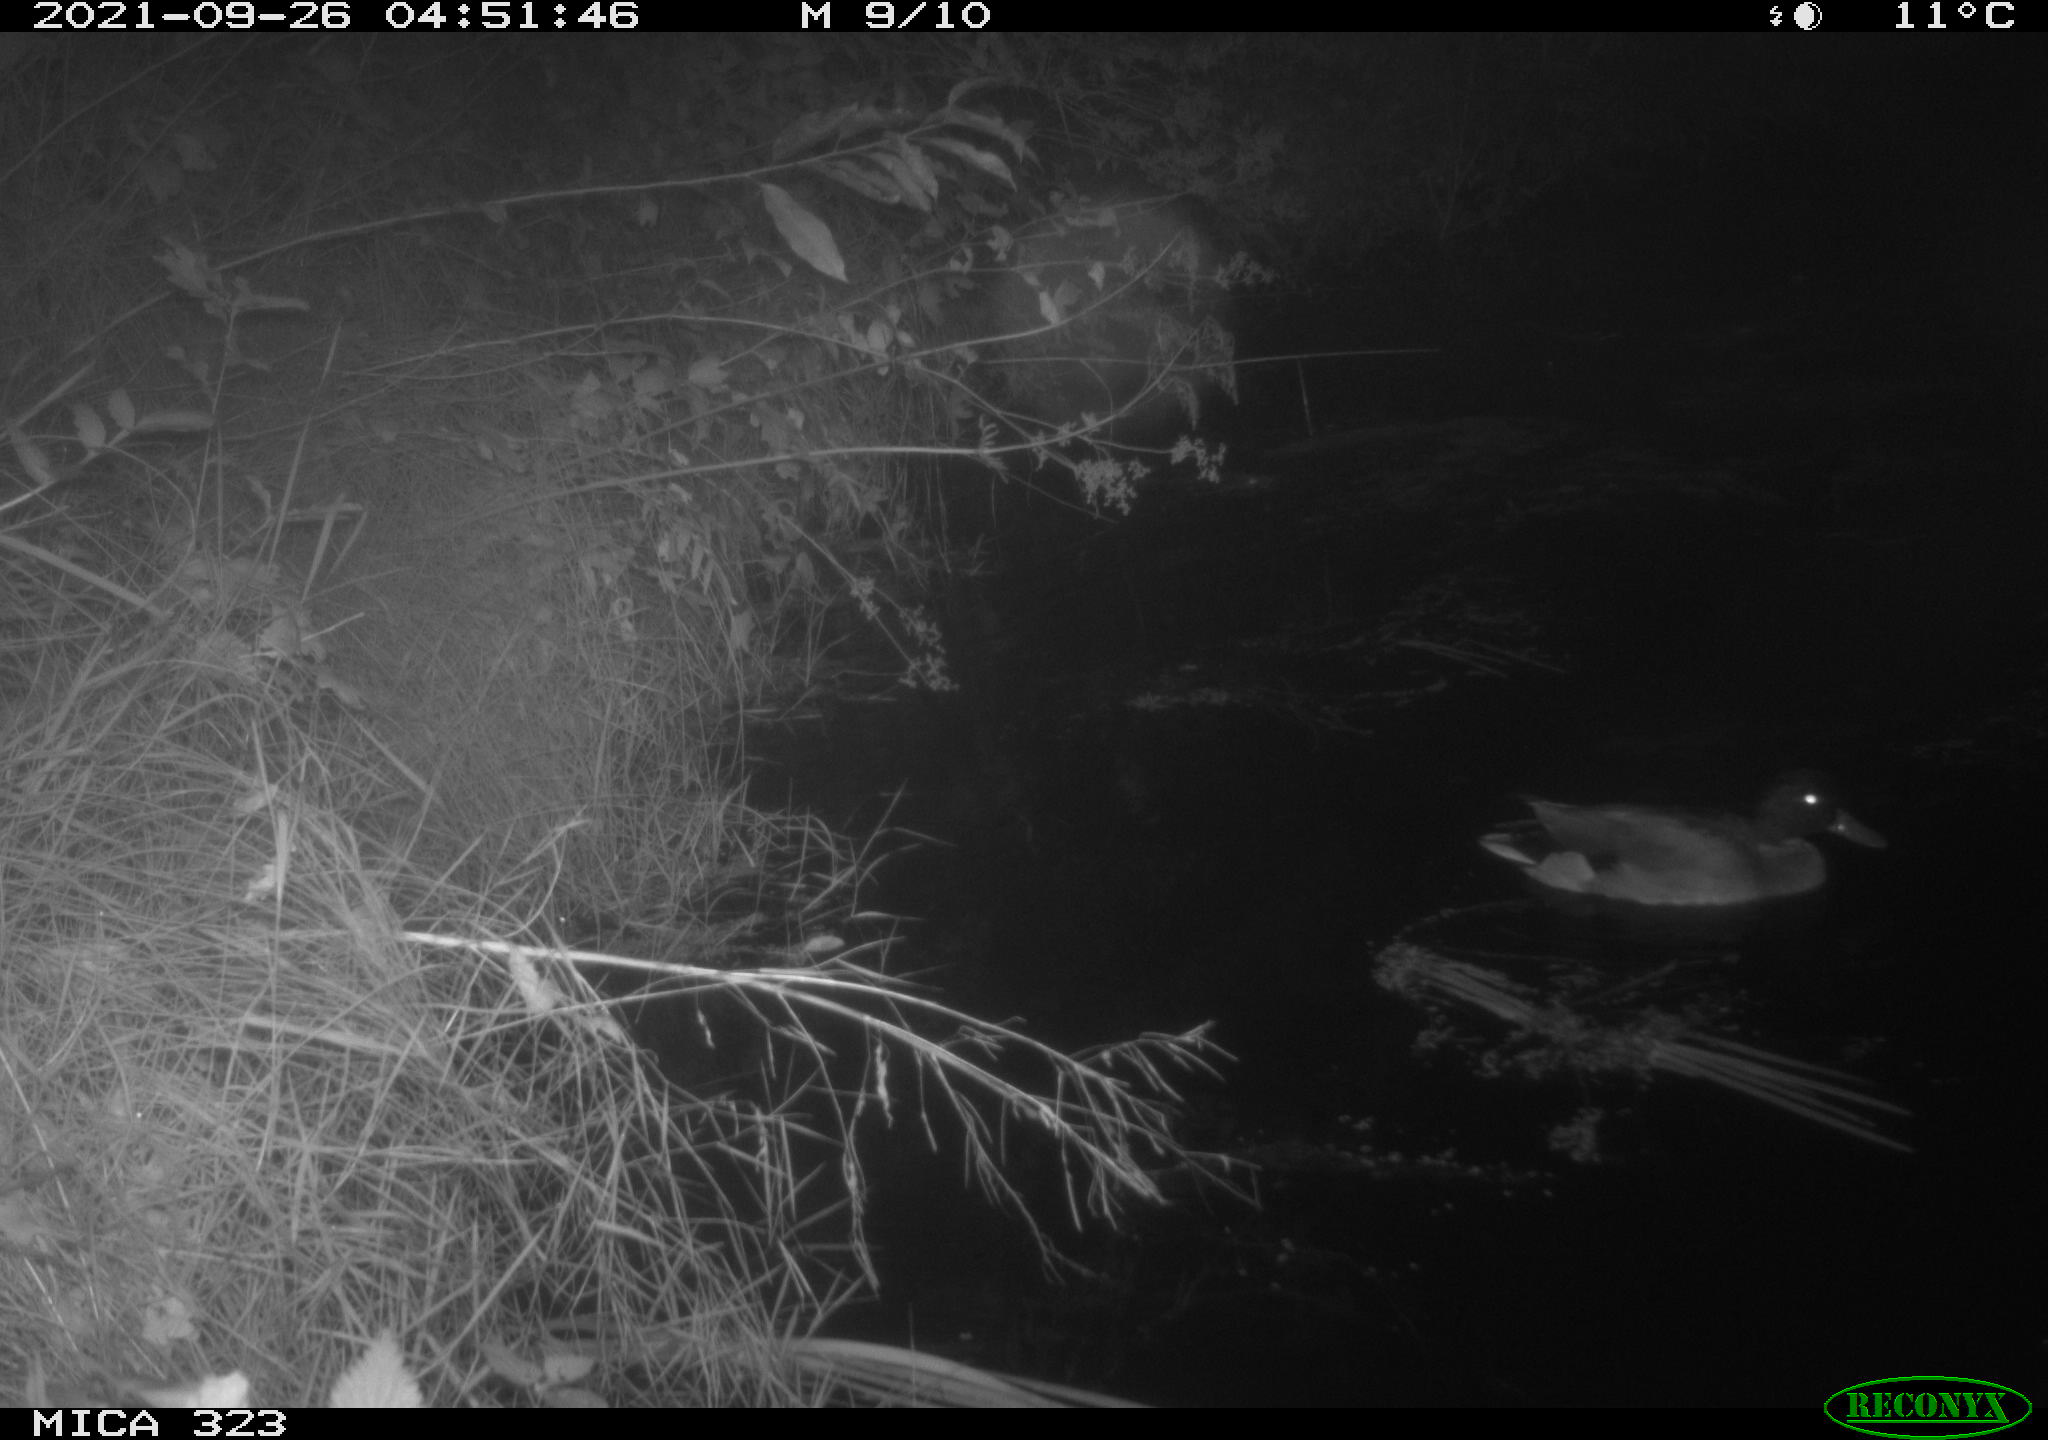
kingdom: Animalia
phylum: Chordata
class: Aves
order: Anseriformes
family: Anatidae
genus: Anas
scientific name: Anas platyrhynchos
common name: Mallard
